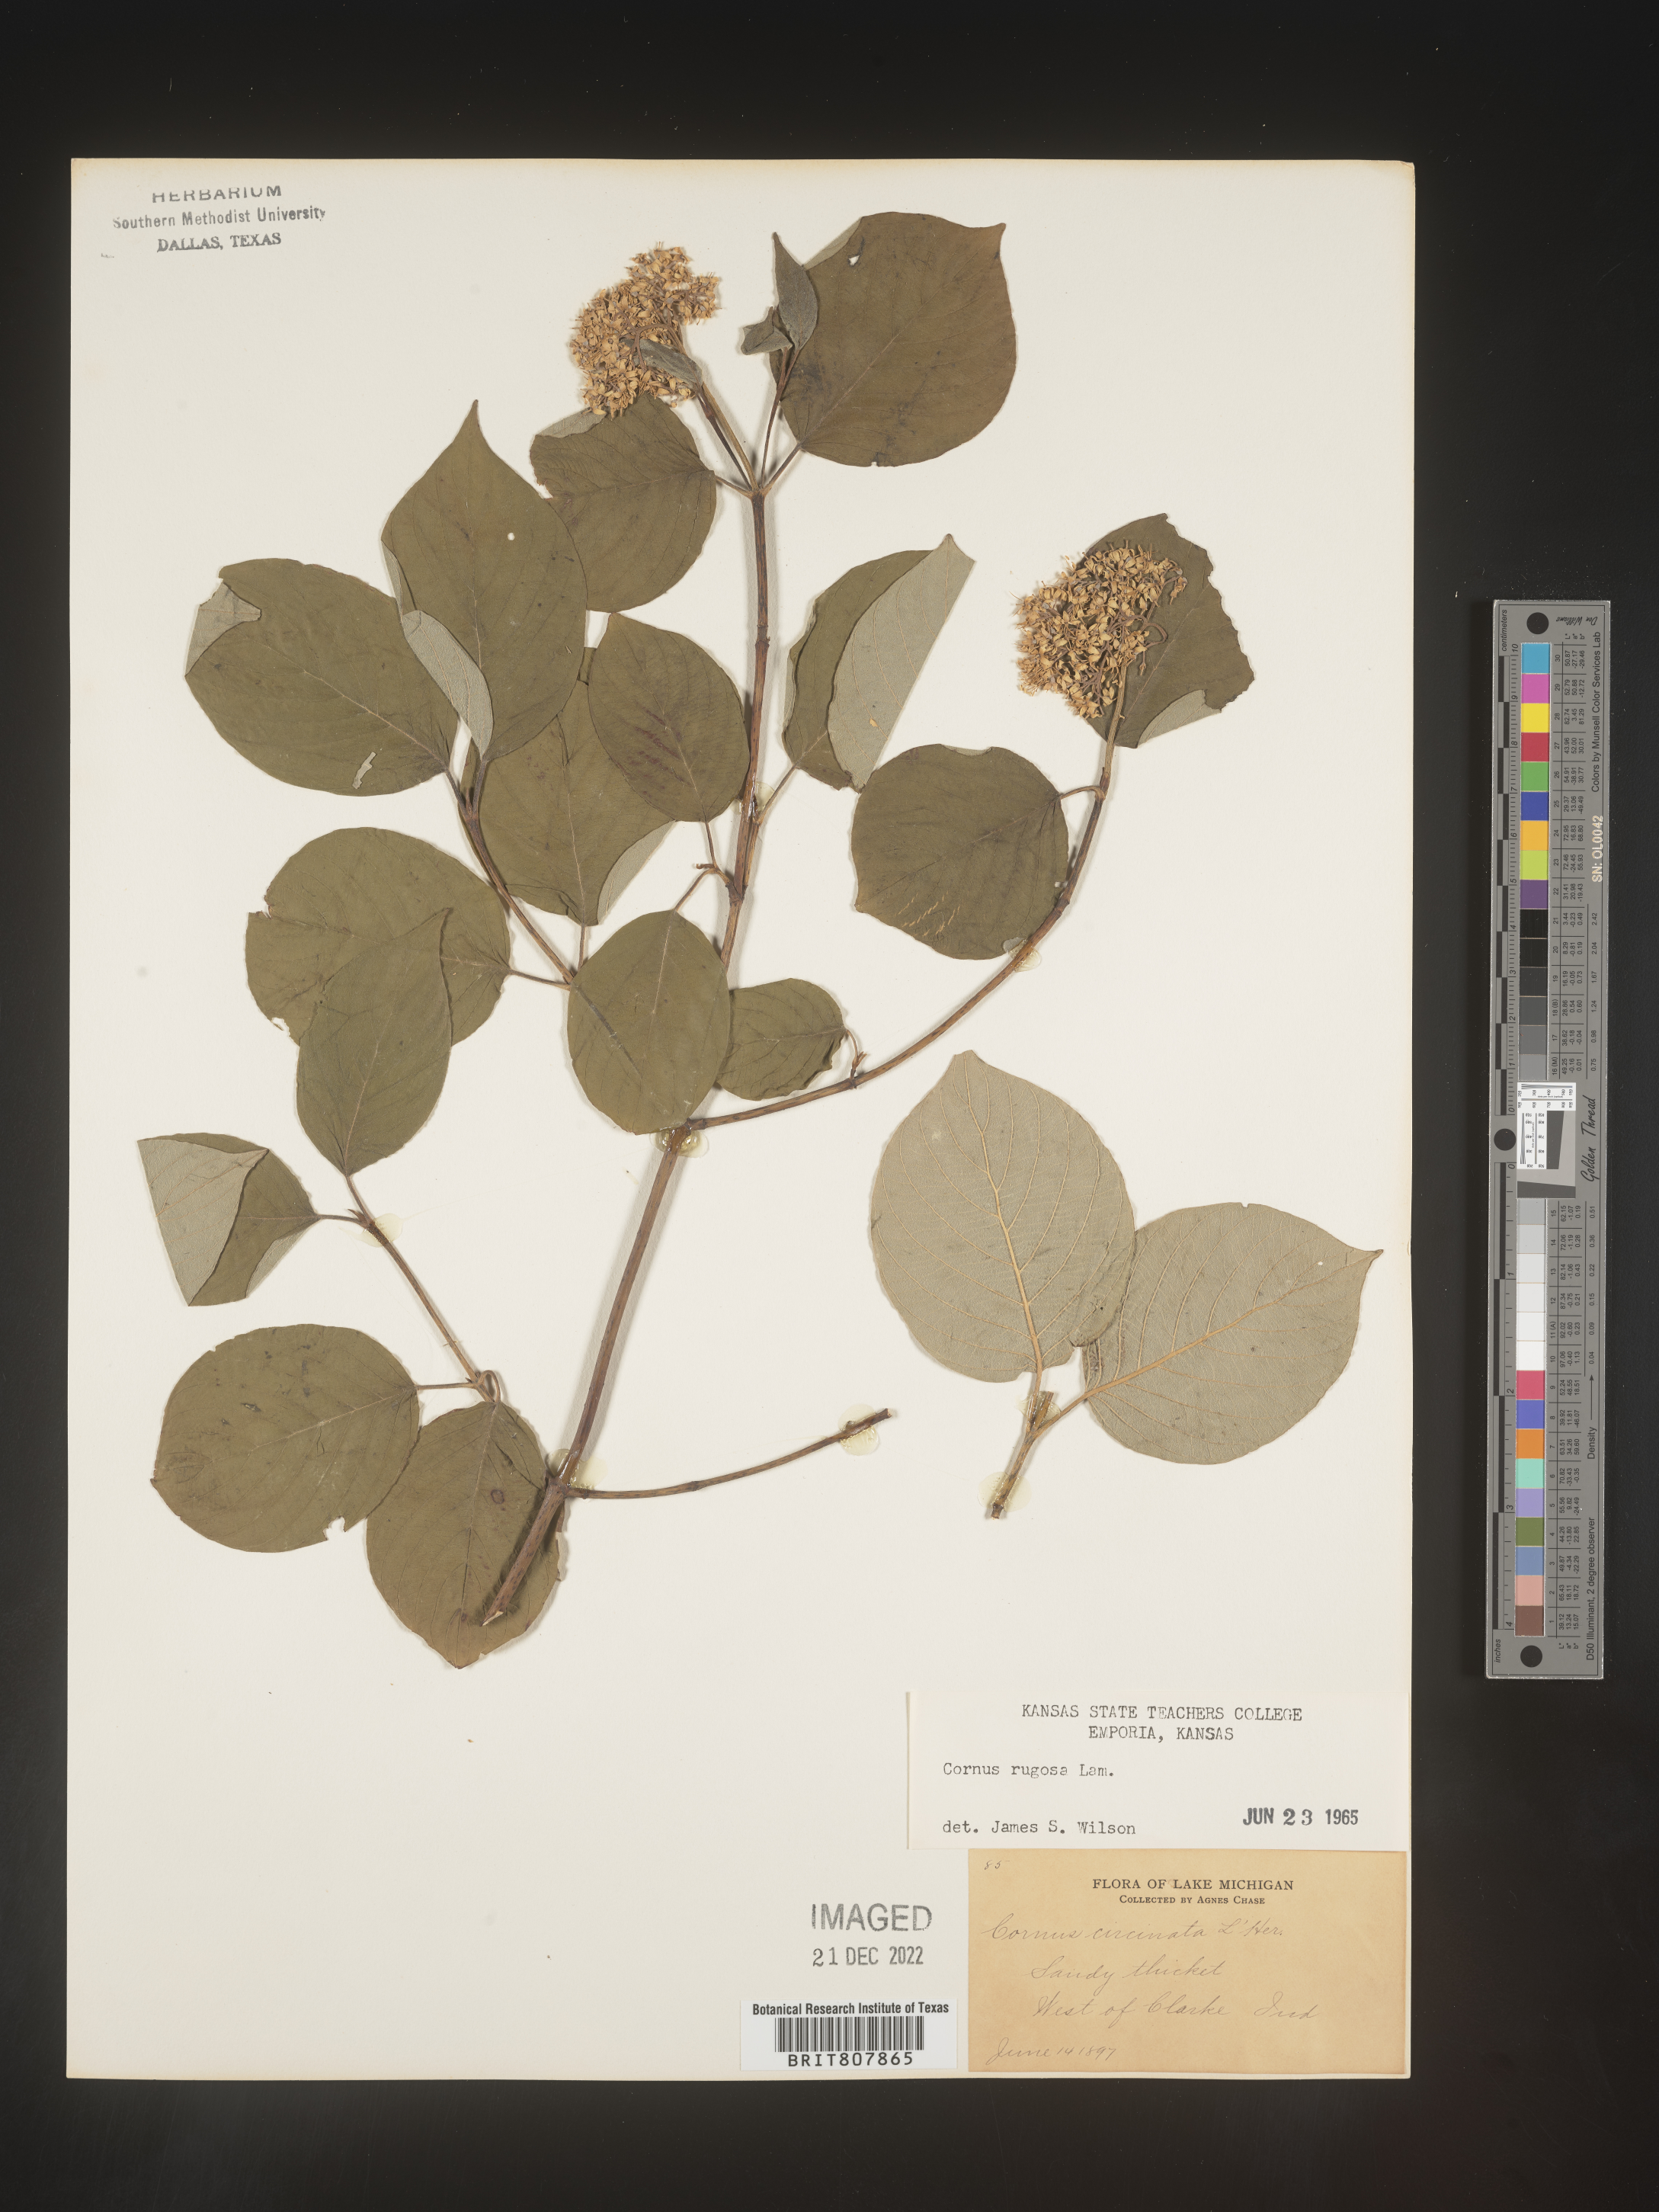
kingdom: Plantae
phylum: Tracheophyta
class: Magnoliopsida
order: Cornales
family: Cornaceae
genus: Cornus
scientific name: Cornus rugosa
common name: Round-leaf dogwood
